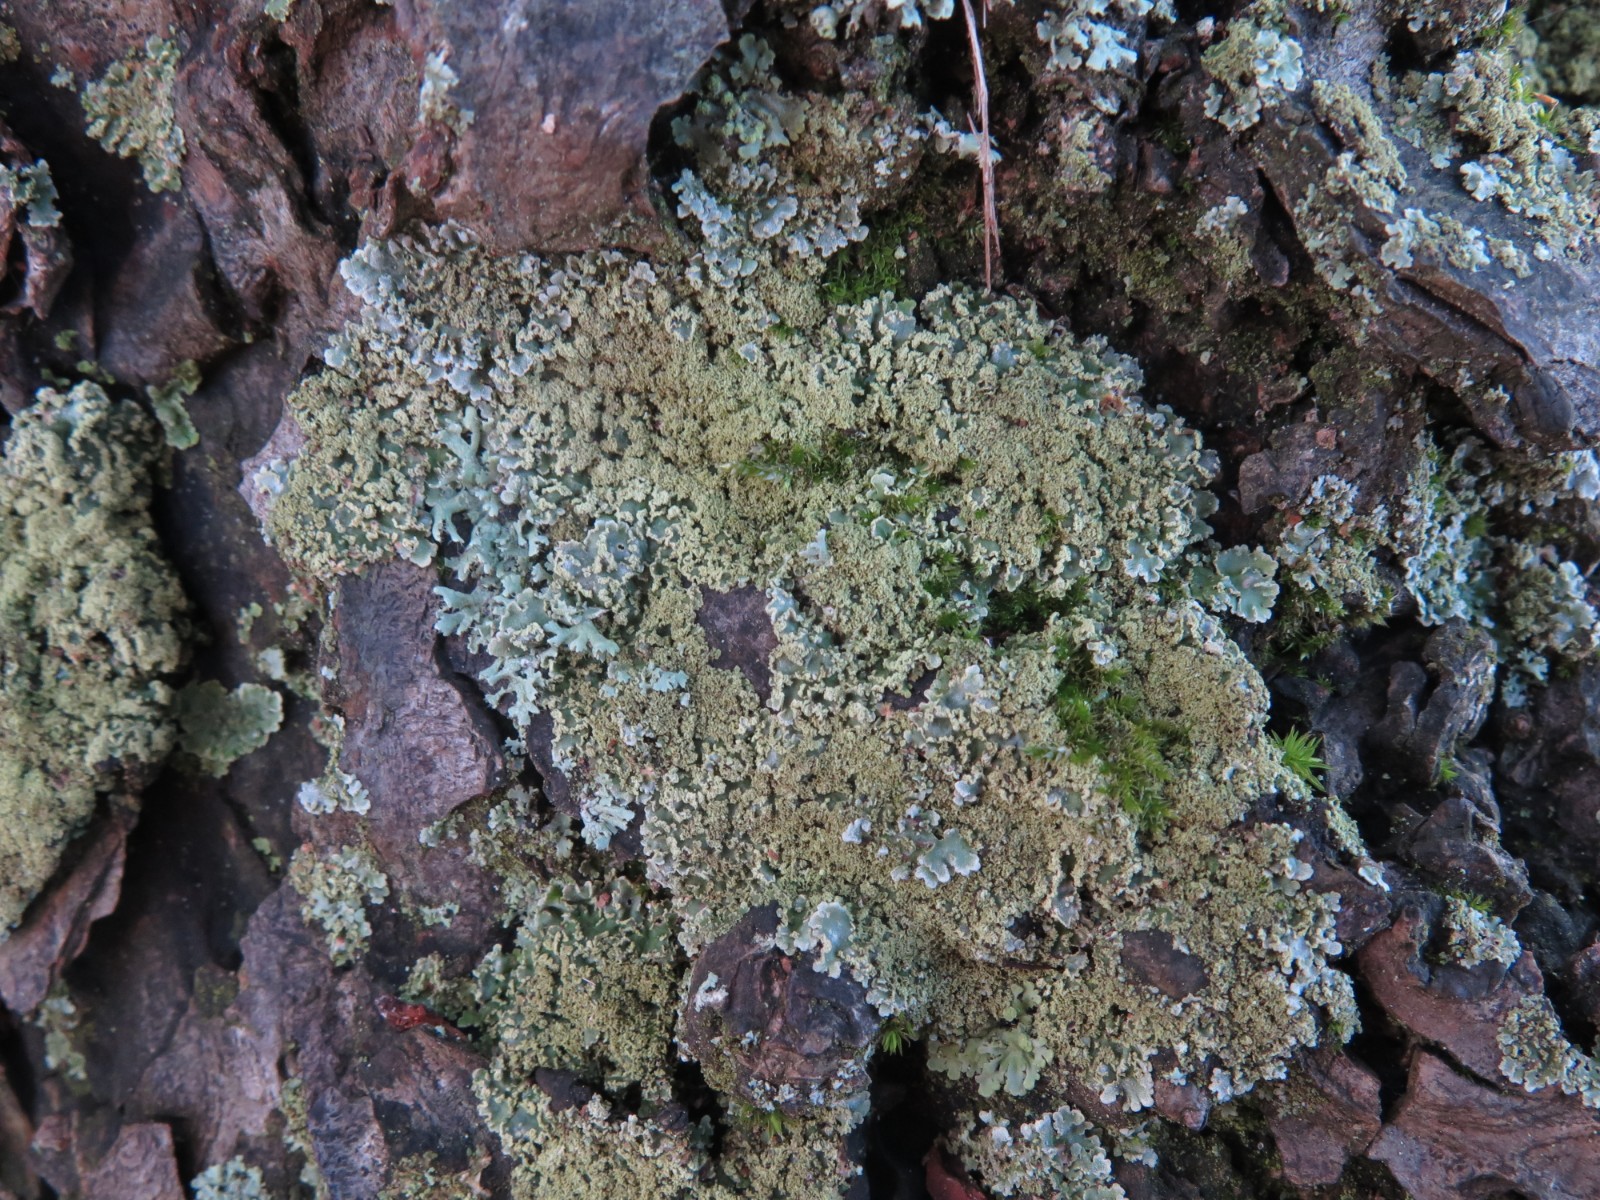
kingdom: Fungi
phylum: Ascomycota
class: Lecanoromycetes
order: Caliciales
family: Physciaceae
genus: Physconia
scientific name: Physconia perisidiosa
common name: liden dugrosetlav
